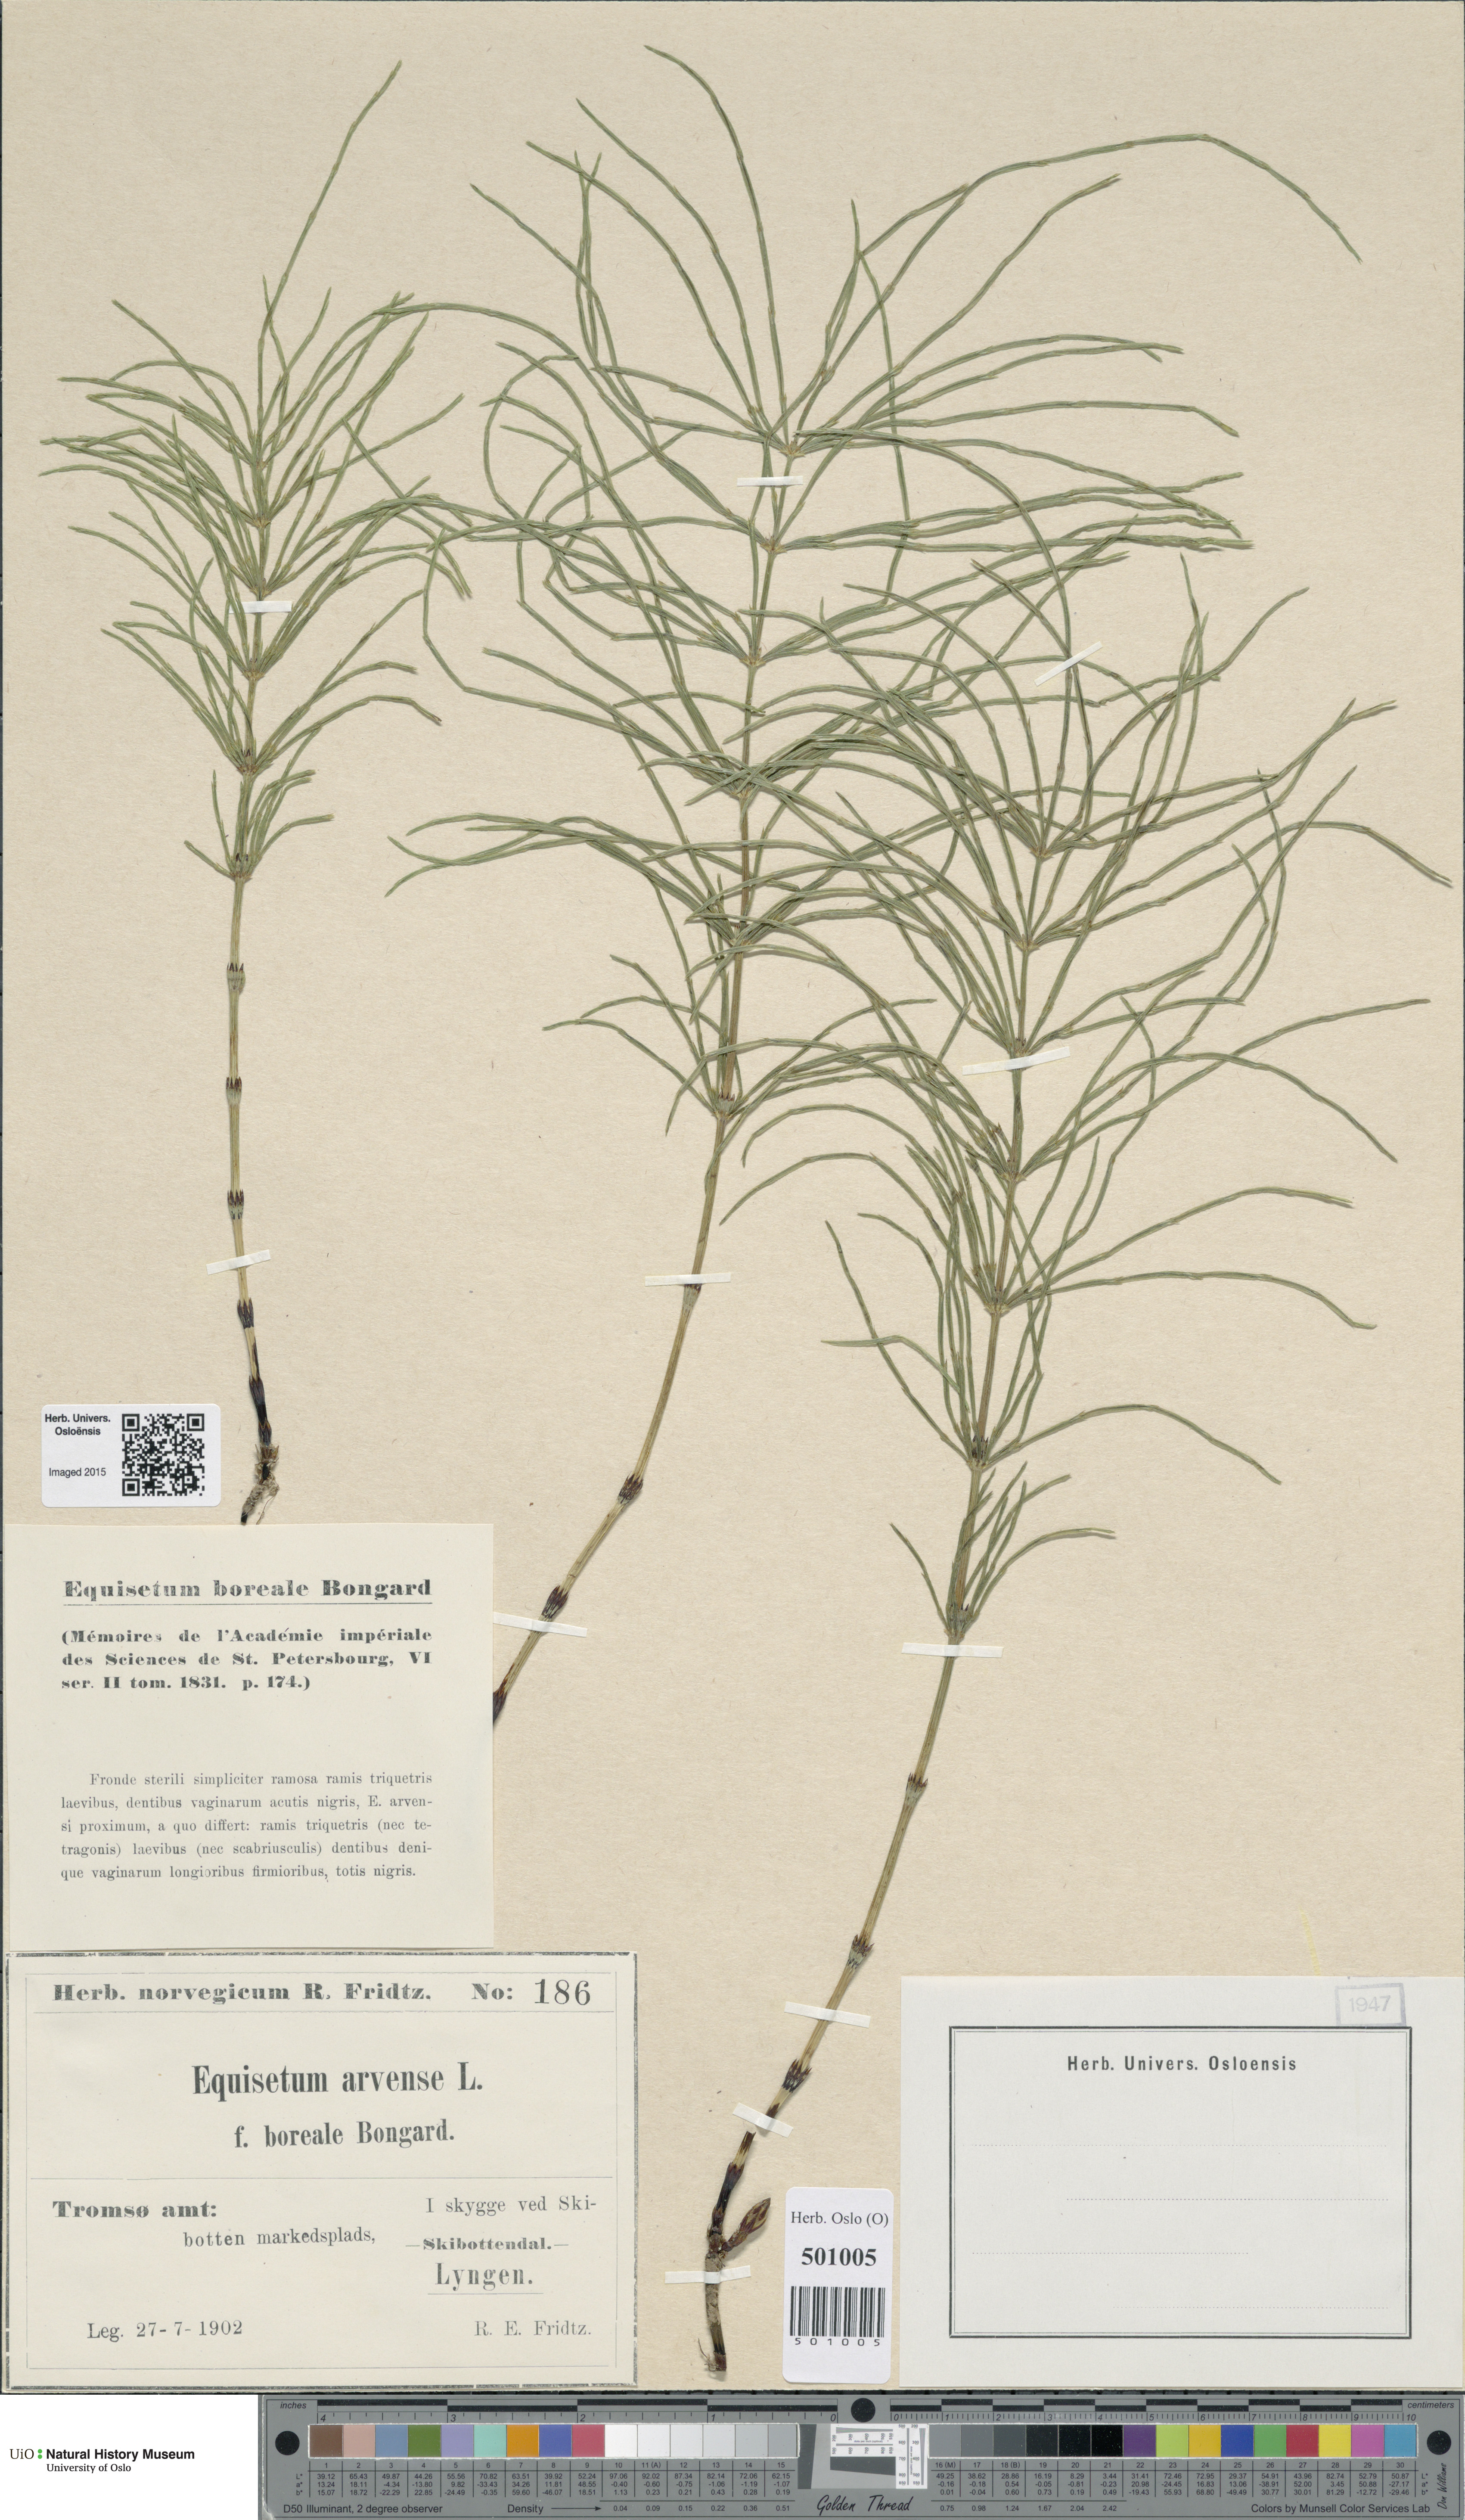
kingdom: Plantae
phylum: Tracheophyta
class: Polypodiopsida
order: Equisetales
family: Equisetaceae
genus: Equisetum
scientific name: Equisetum arvense
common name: Field horsetail
